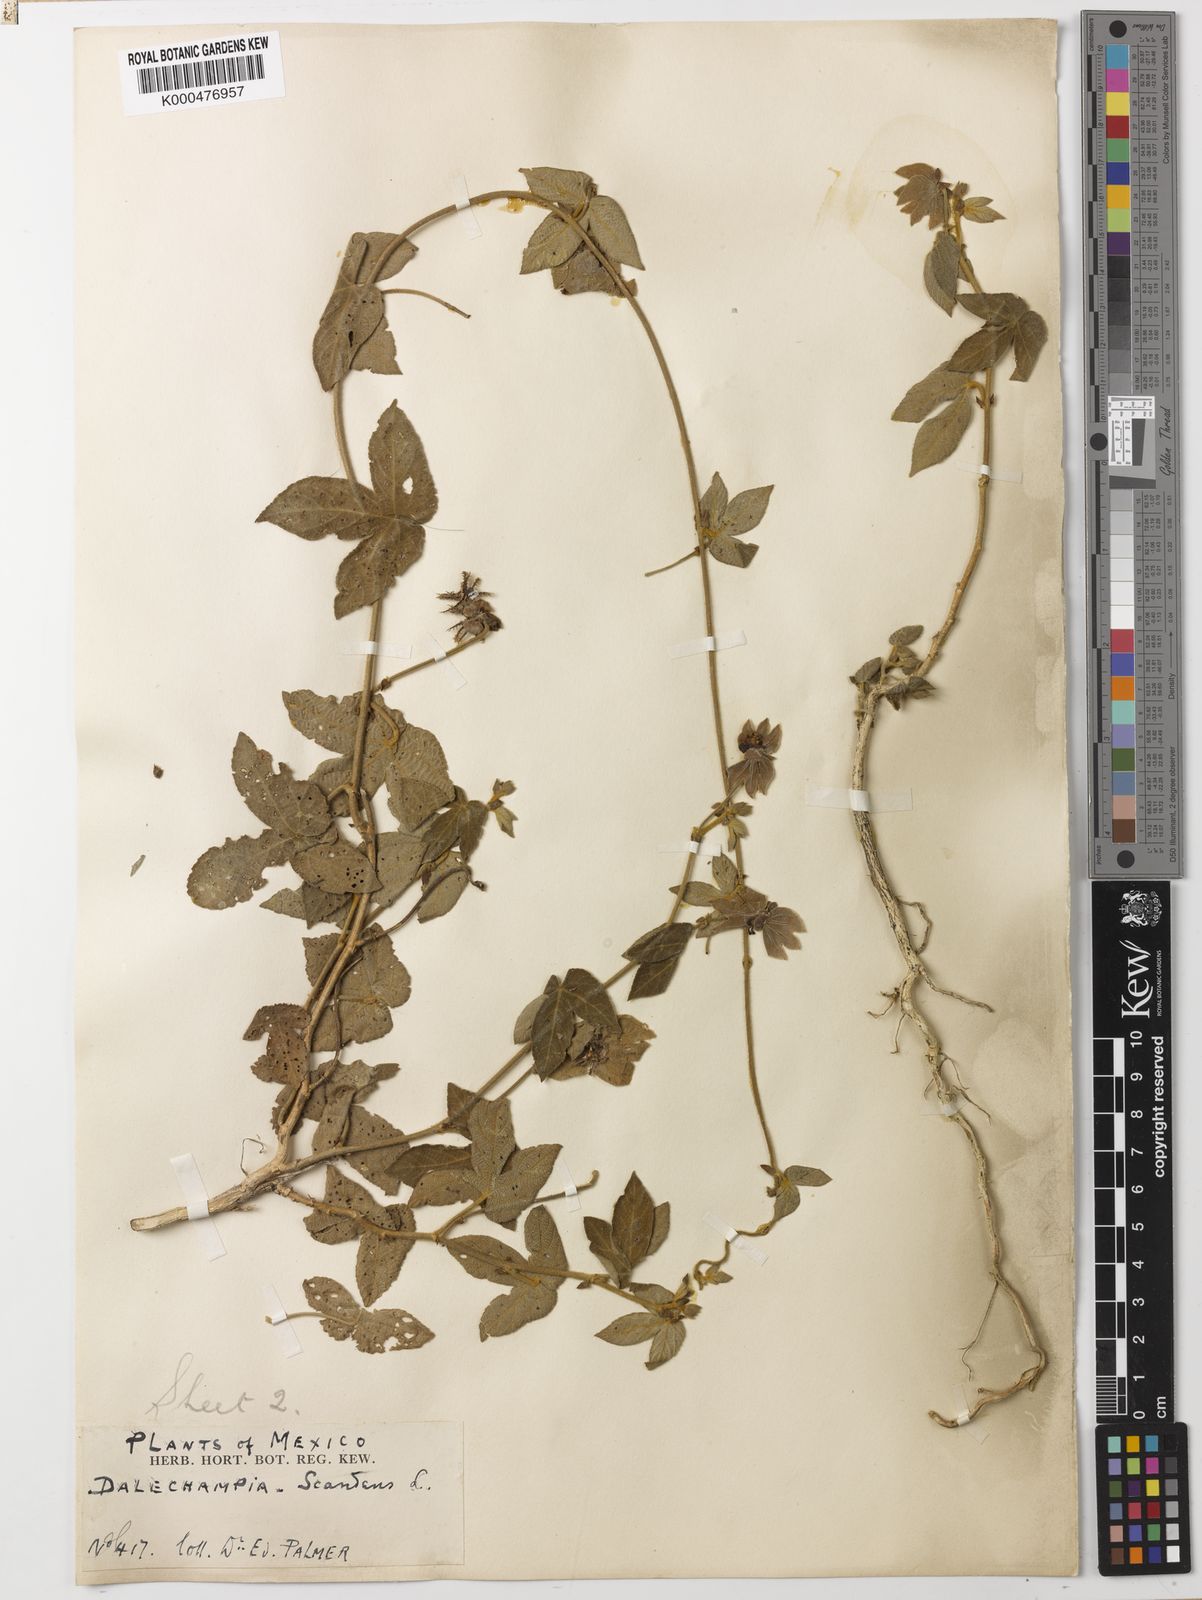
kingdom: Plantae
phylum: Tracheophyta
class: Magnoliopsida
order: Malpighiales
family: Euphorbiaceae
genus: Dalechampia
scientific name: Dalechampia scandens
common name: Spurgecreeper
